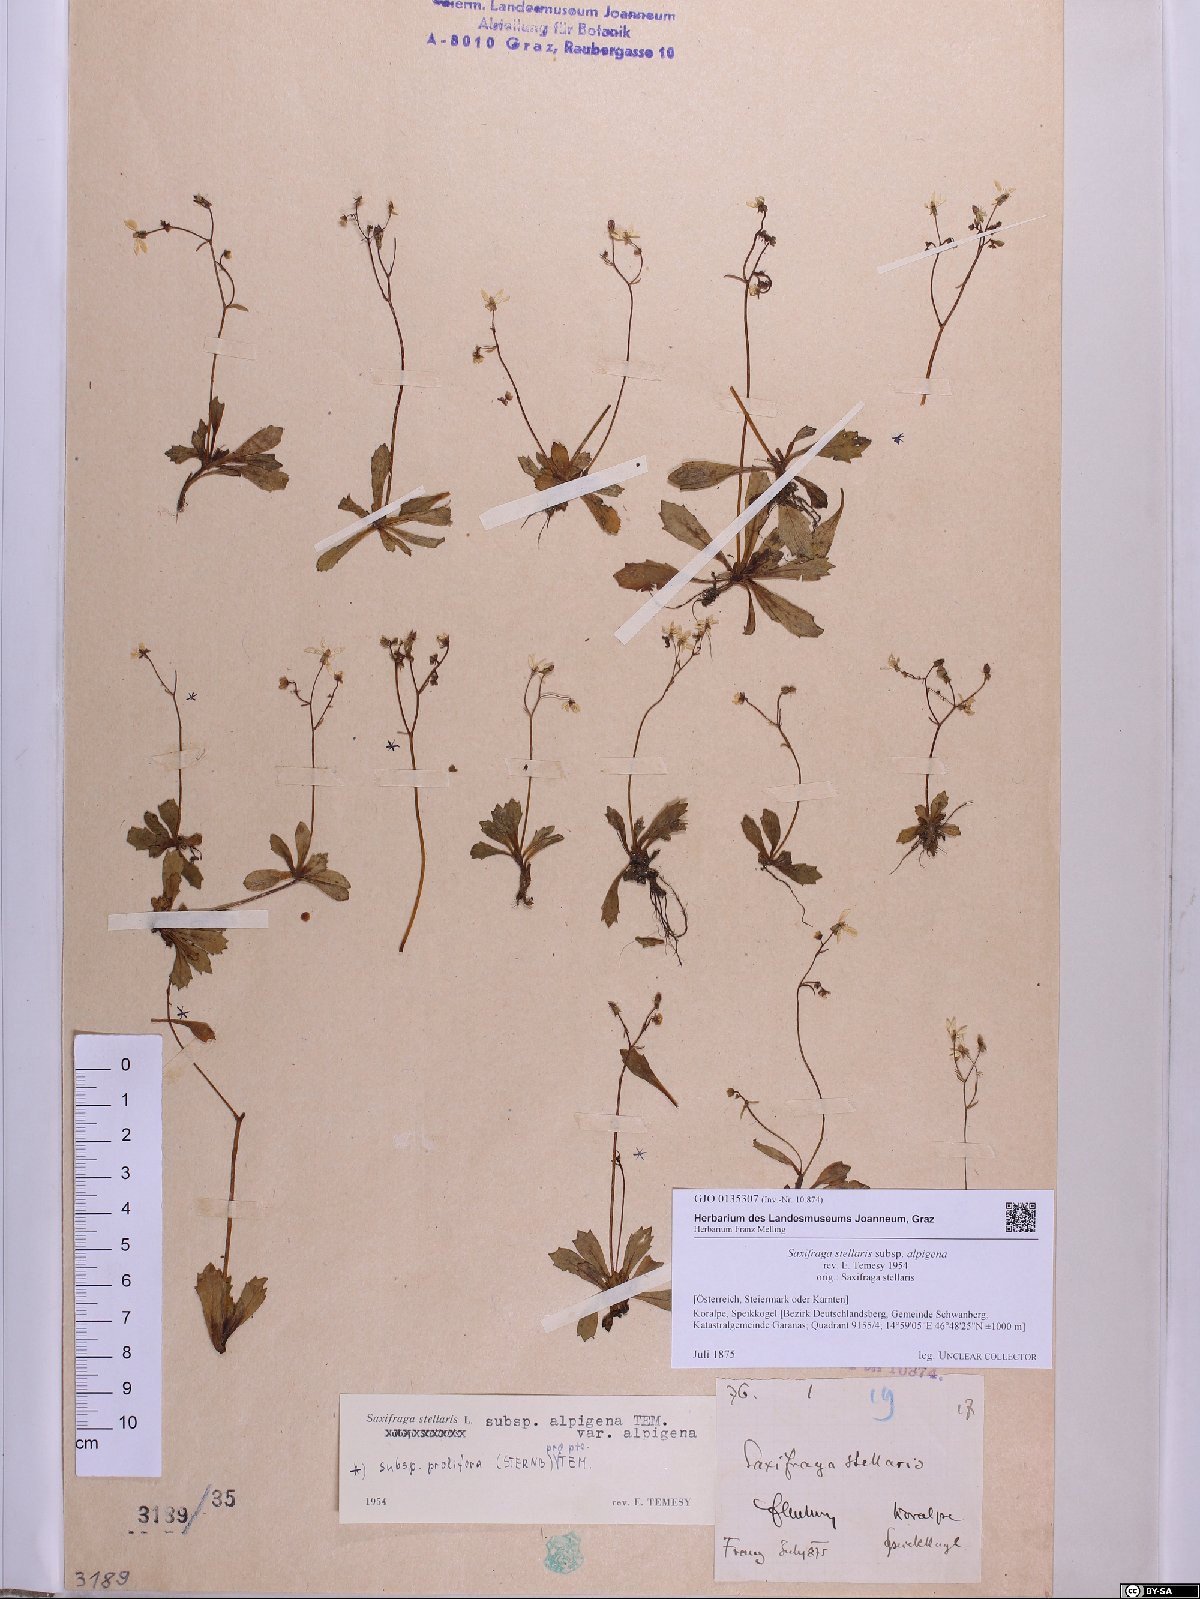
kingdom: Plantae
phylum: Tracheophyta
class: Magnoliopsida
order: Saxifragales
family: Saxifragaceae
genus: Micranthes
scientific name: Micranthes stellaris
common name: Starry saxifrage
